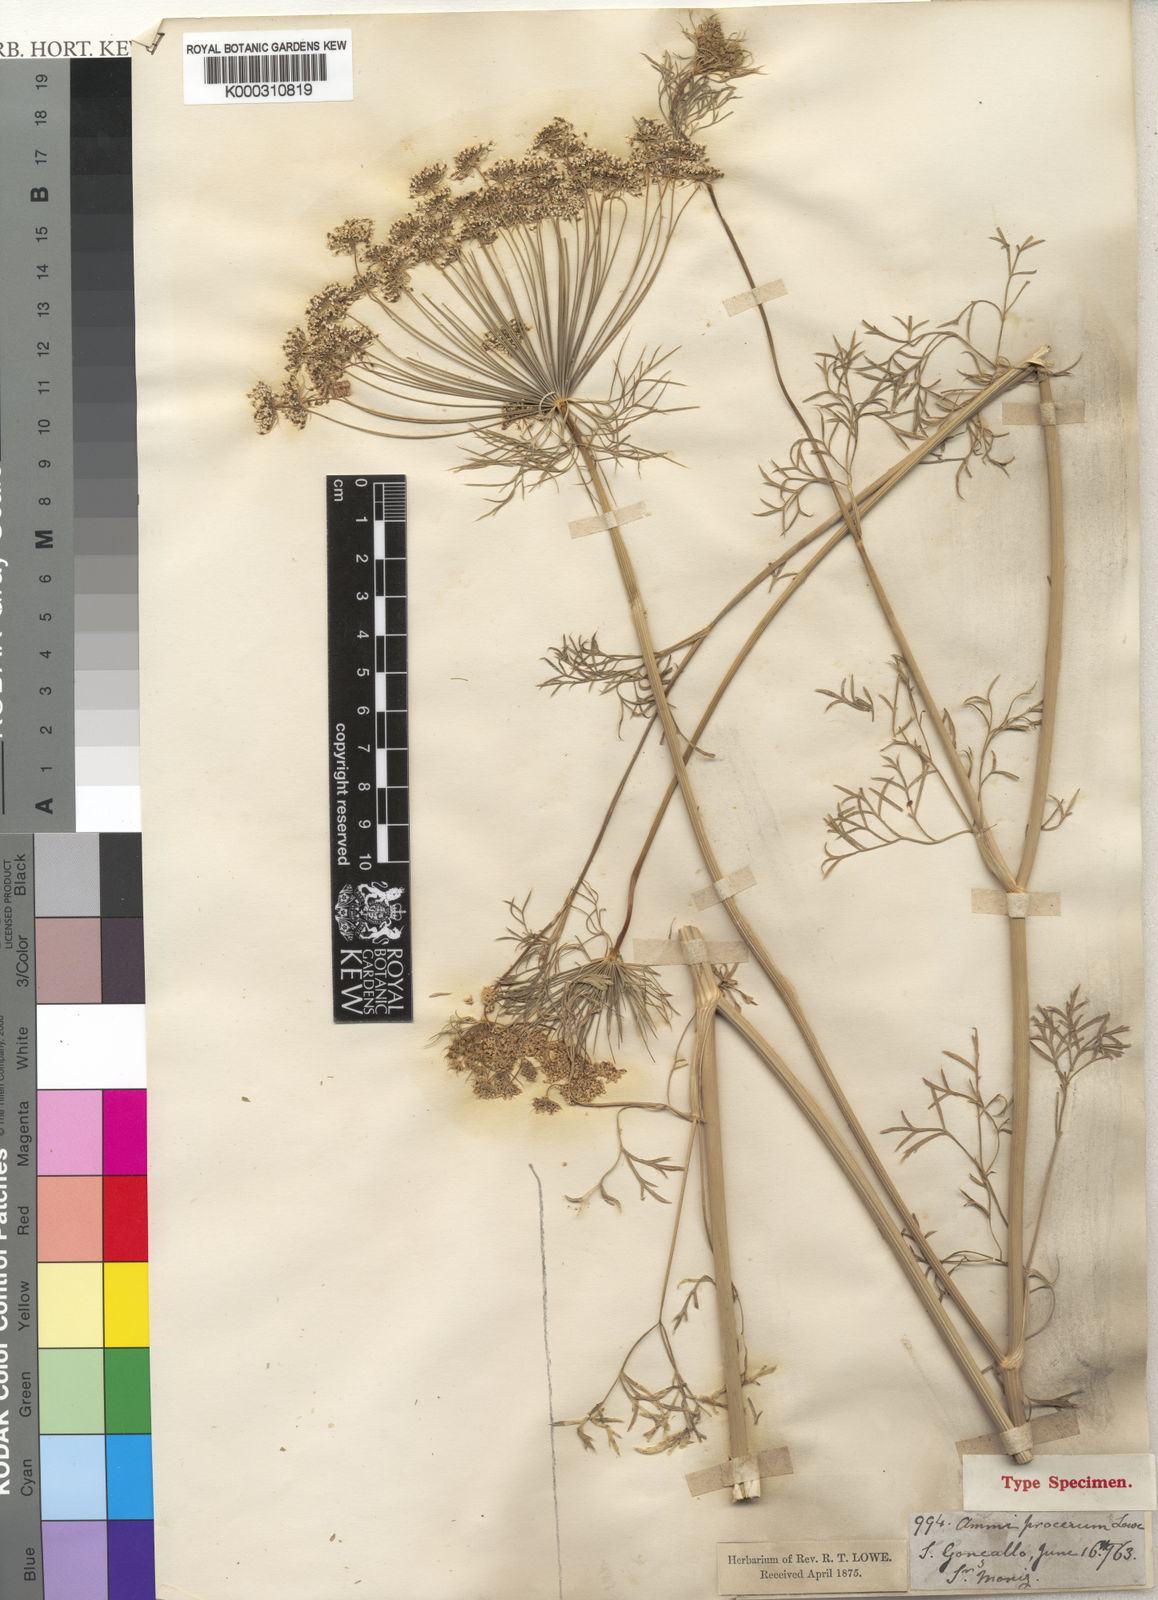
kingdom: Plantae
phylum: Tracheophyta
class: Magnoliopsida
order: Apiales
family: Apiaceae
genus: Ammi
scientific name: Ammi procerum
